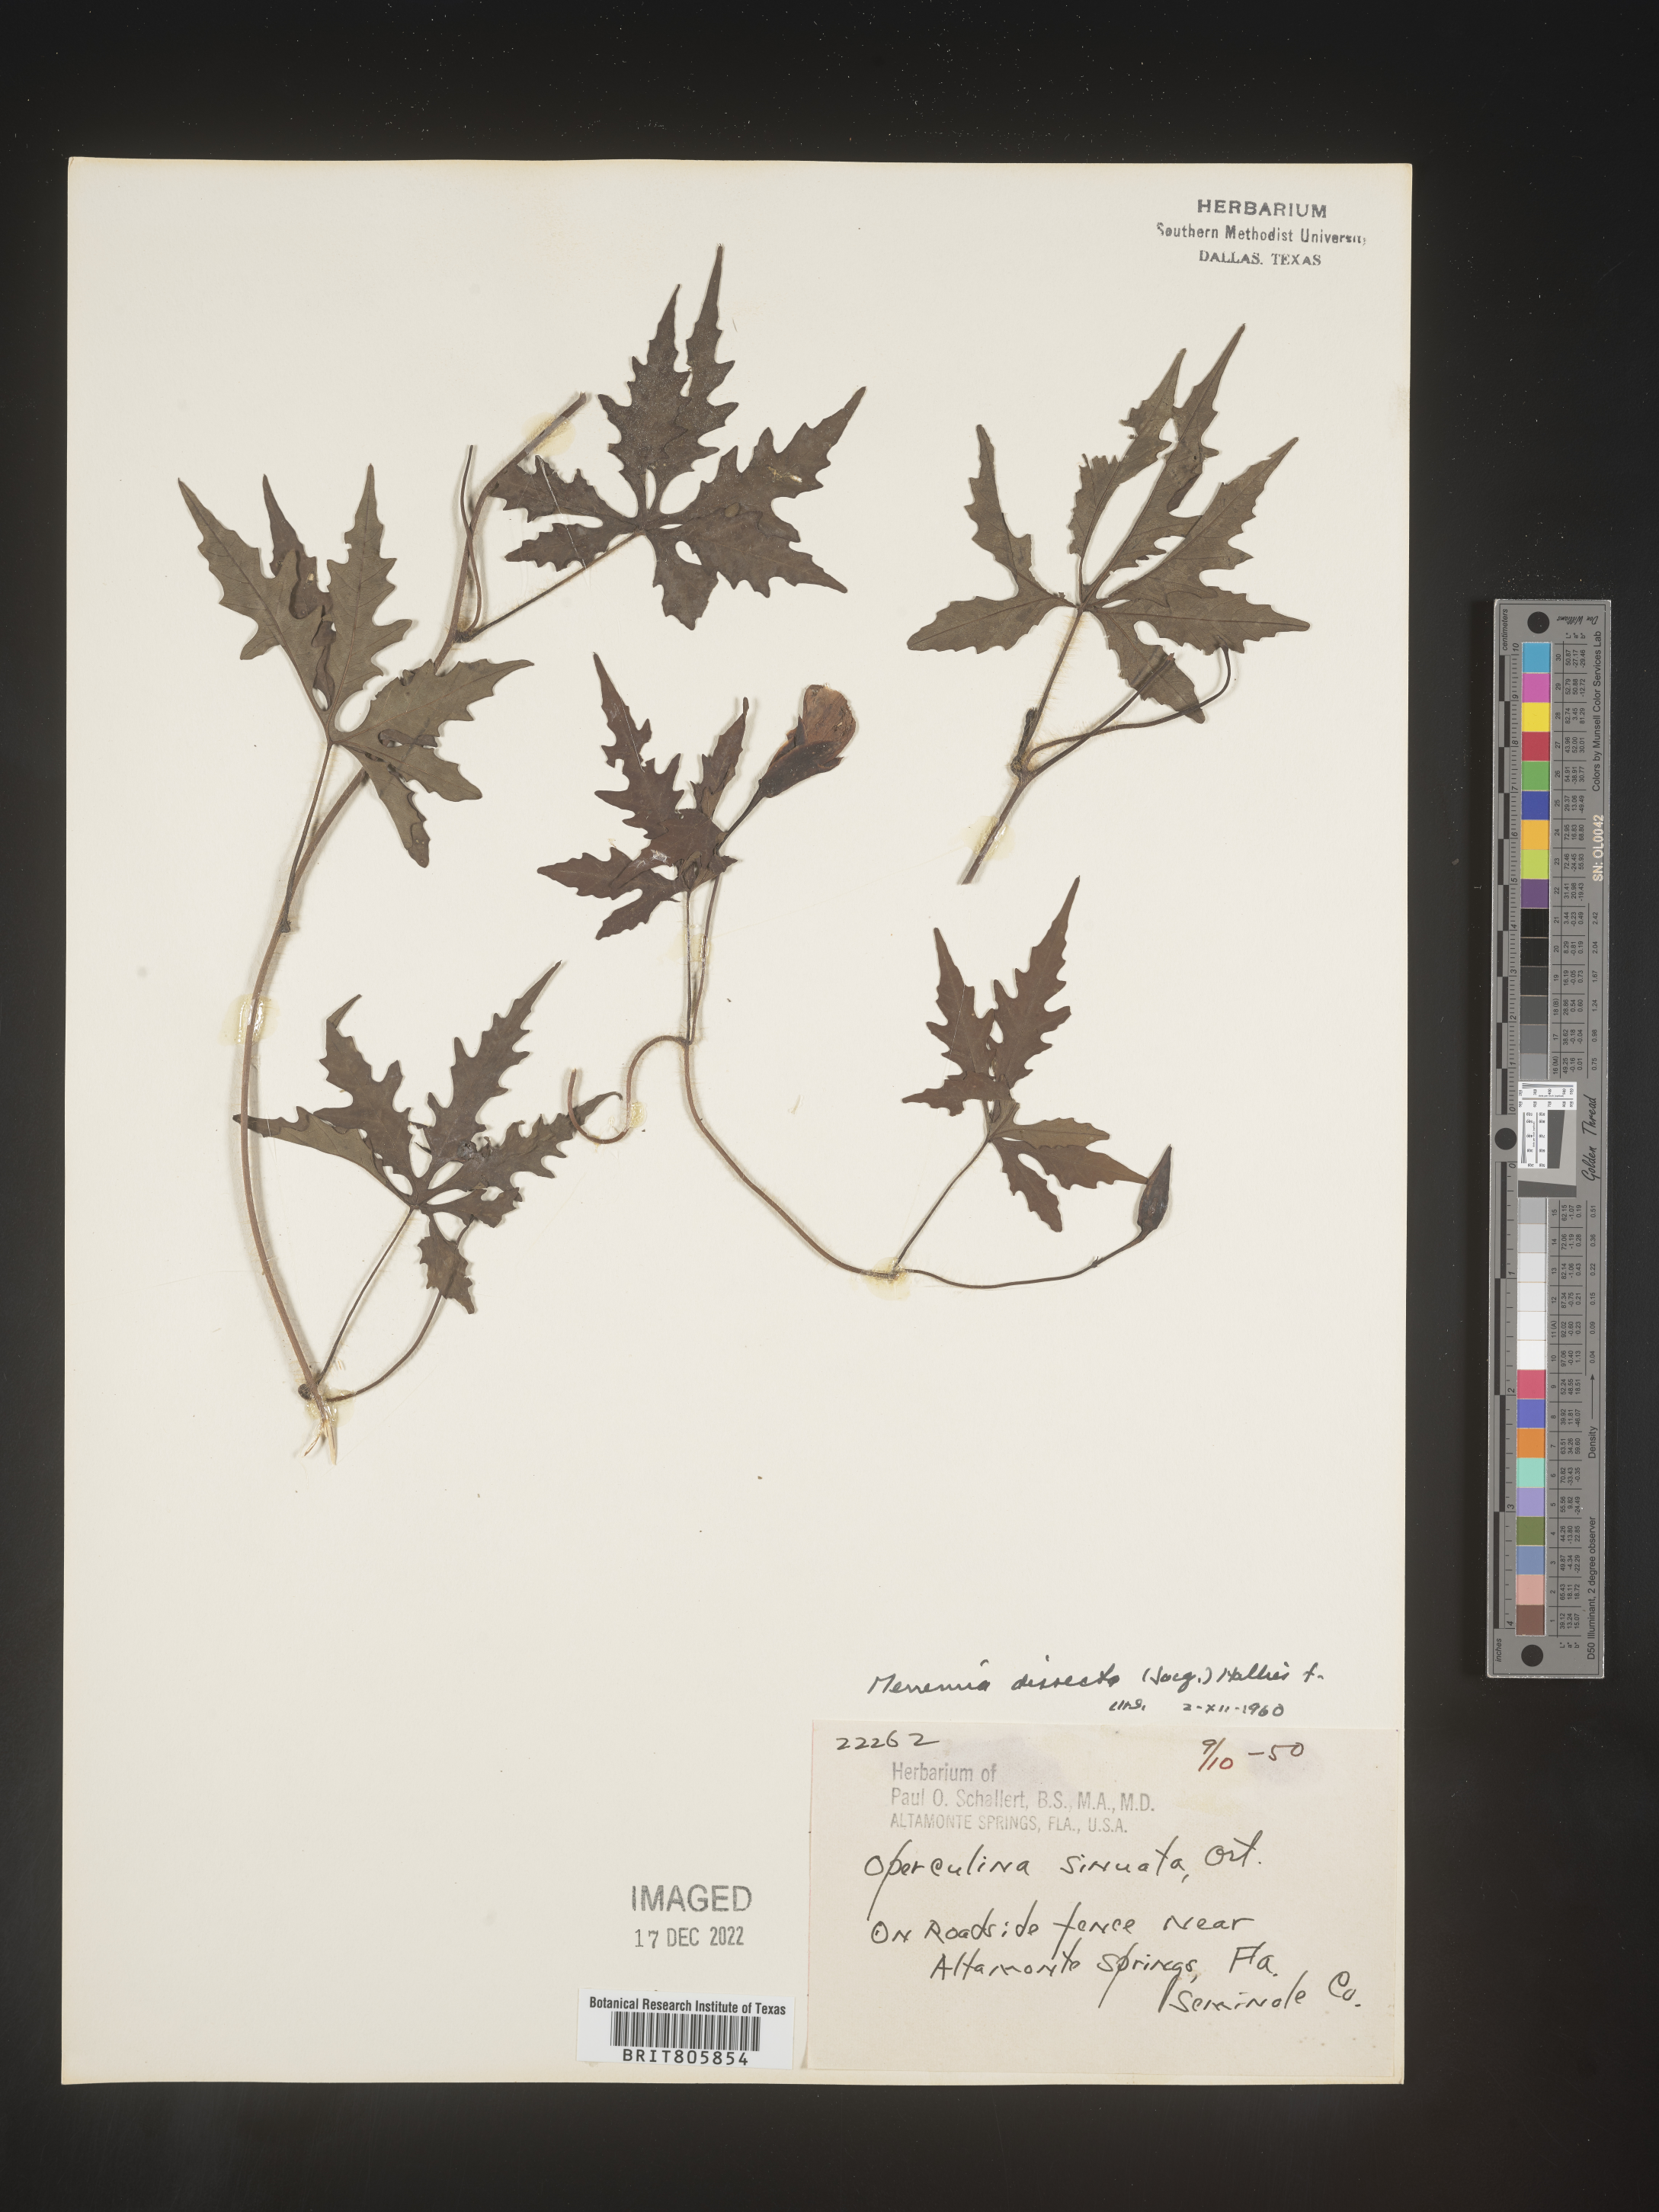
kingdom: Plantae
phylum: Tracheophyta
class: Magnoliopsida
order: Solanales
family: Convolvulaceae
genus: Merremia
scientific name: Merremia
